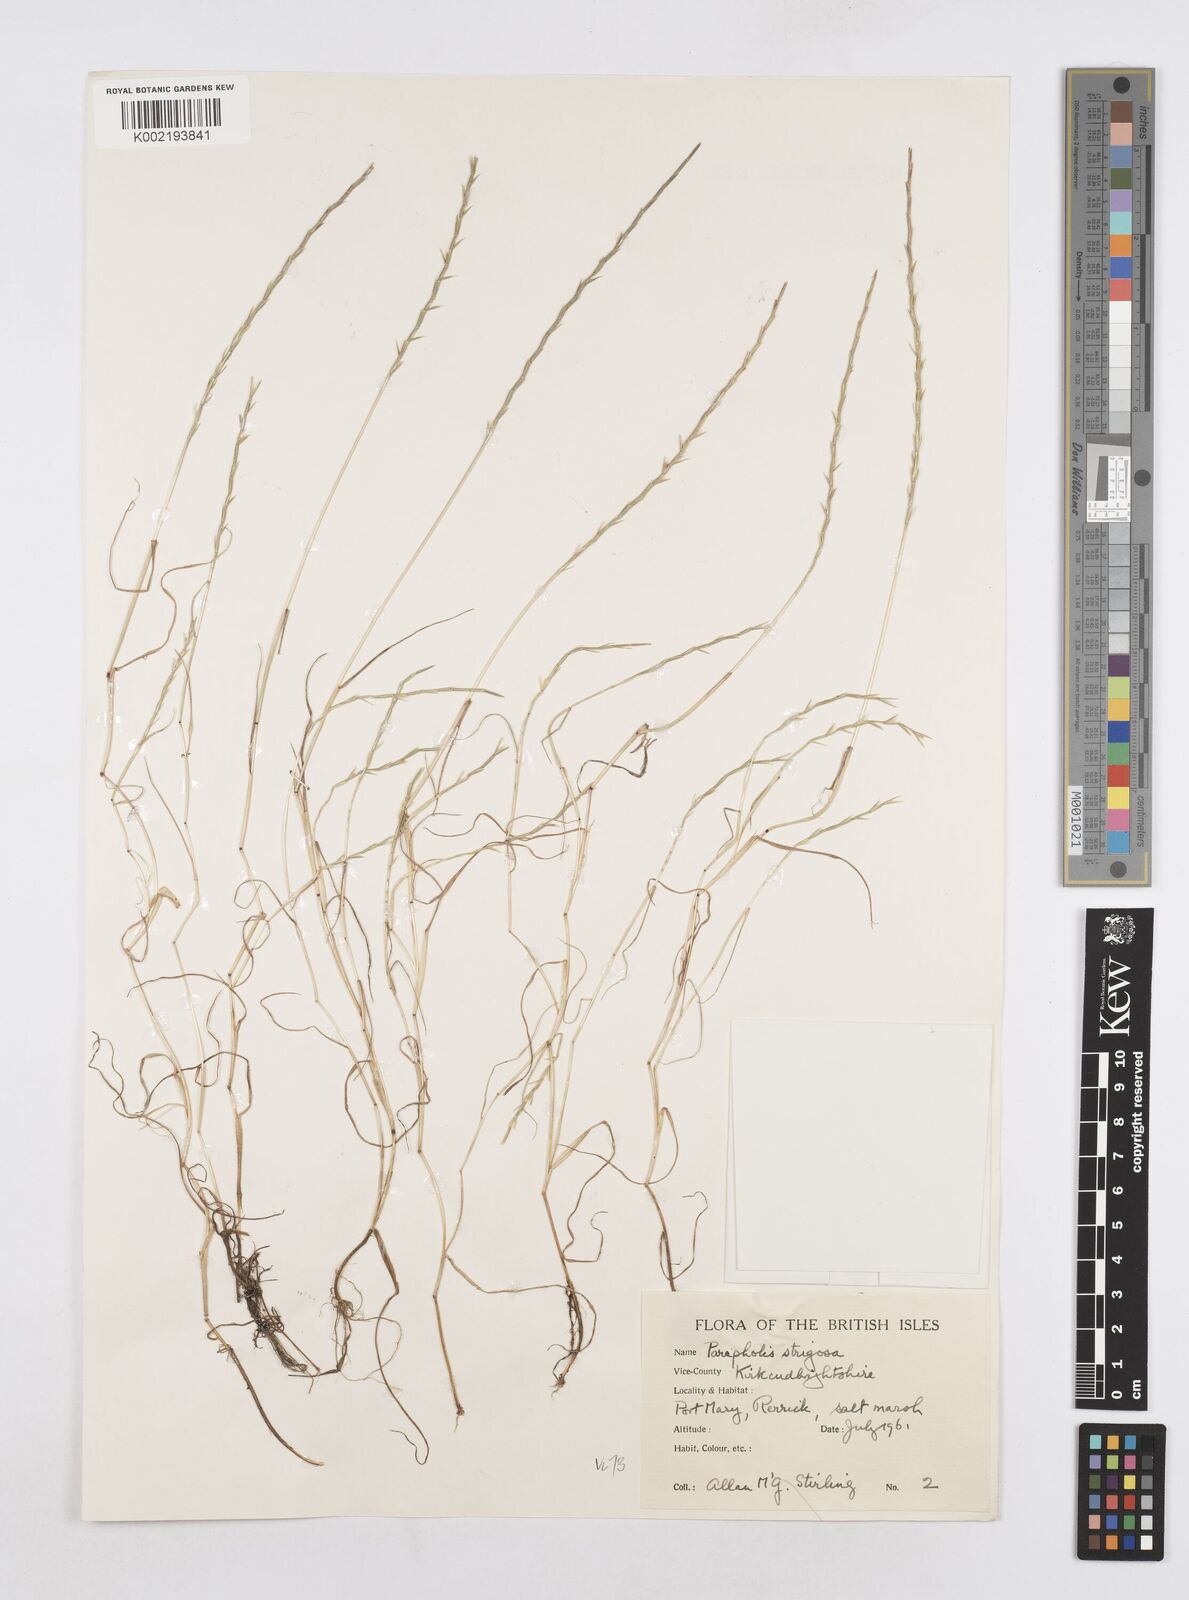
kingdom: Plantae
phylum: Tracheophyta
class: Liliopsida
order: Poales
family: Poaceae
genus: Parapholis
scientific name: Parapholis strigosa
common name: Hard-grass
